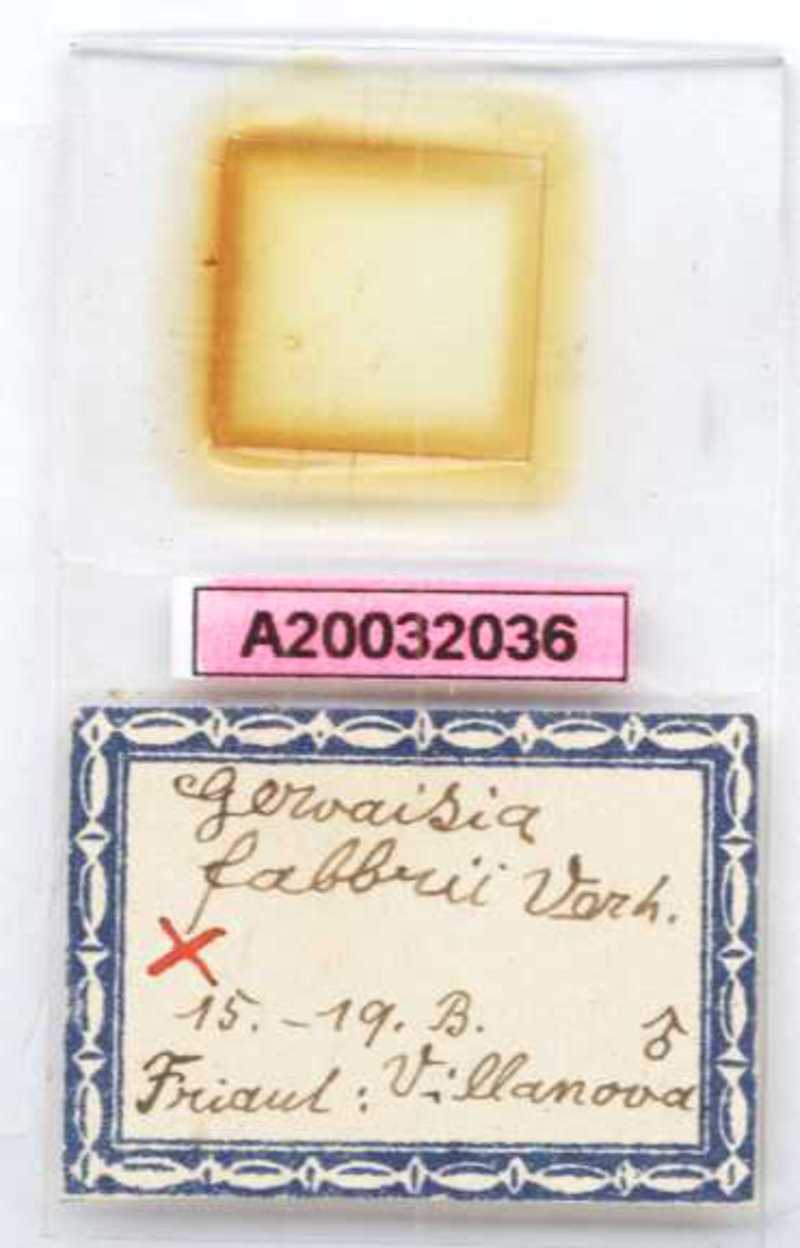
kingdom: Animalia
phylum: Arthropoda
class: Diplopoda
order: Glomerida
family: Glomeridae
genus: Trachysphaera
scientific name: Trachysphaera fabbrii
